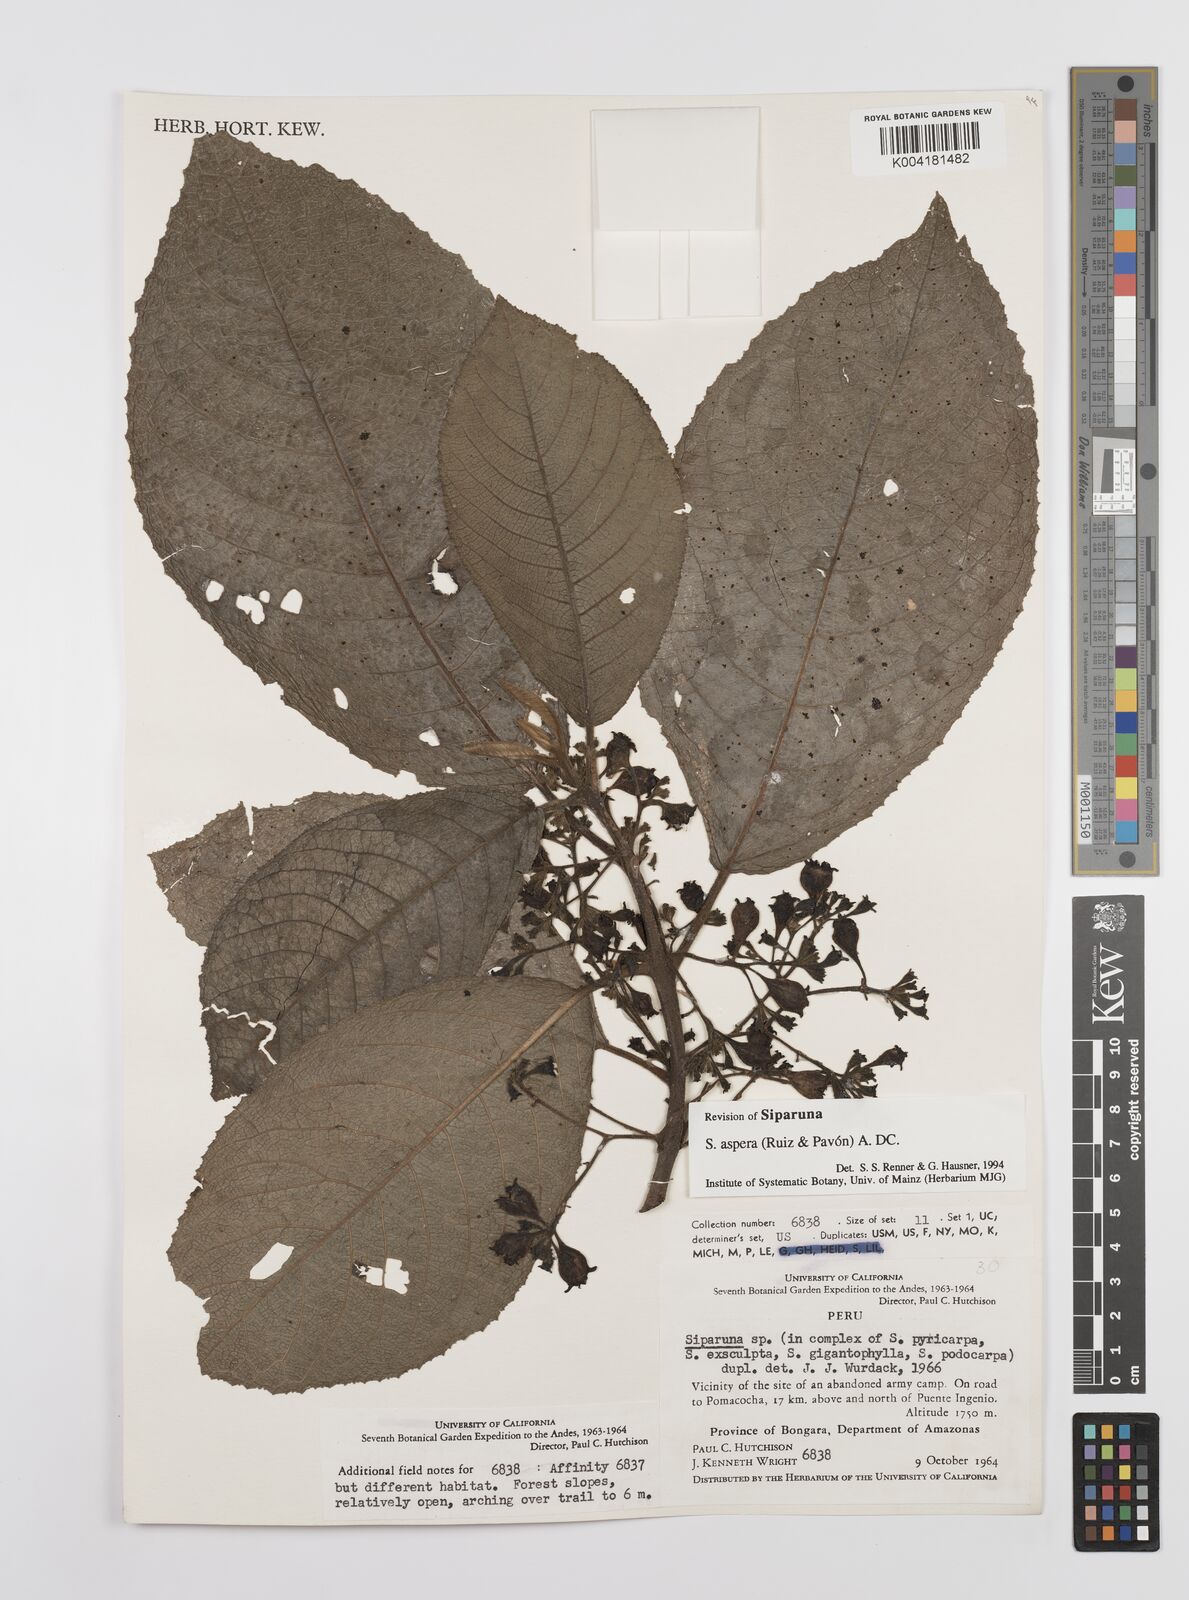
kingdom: Plantae
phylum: Tracheophyta
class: Magnoliopsida
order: Laurales
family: Siparunaceae
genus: Siparuna
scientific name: Siparuna aspera
